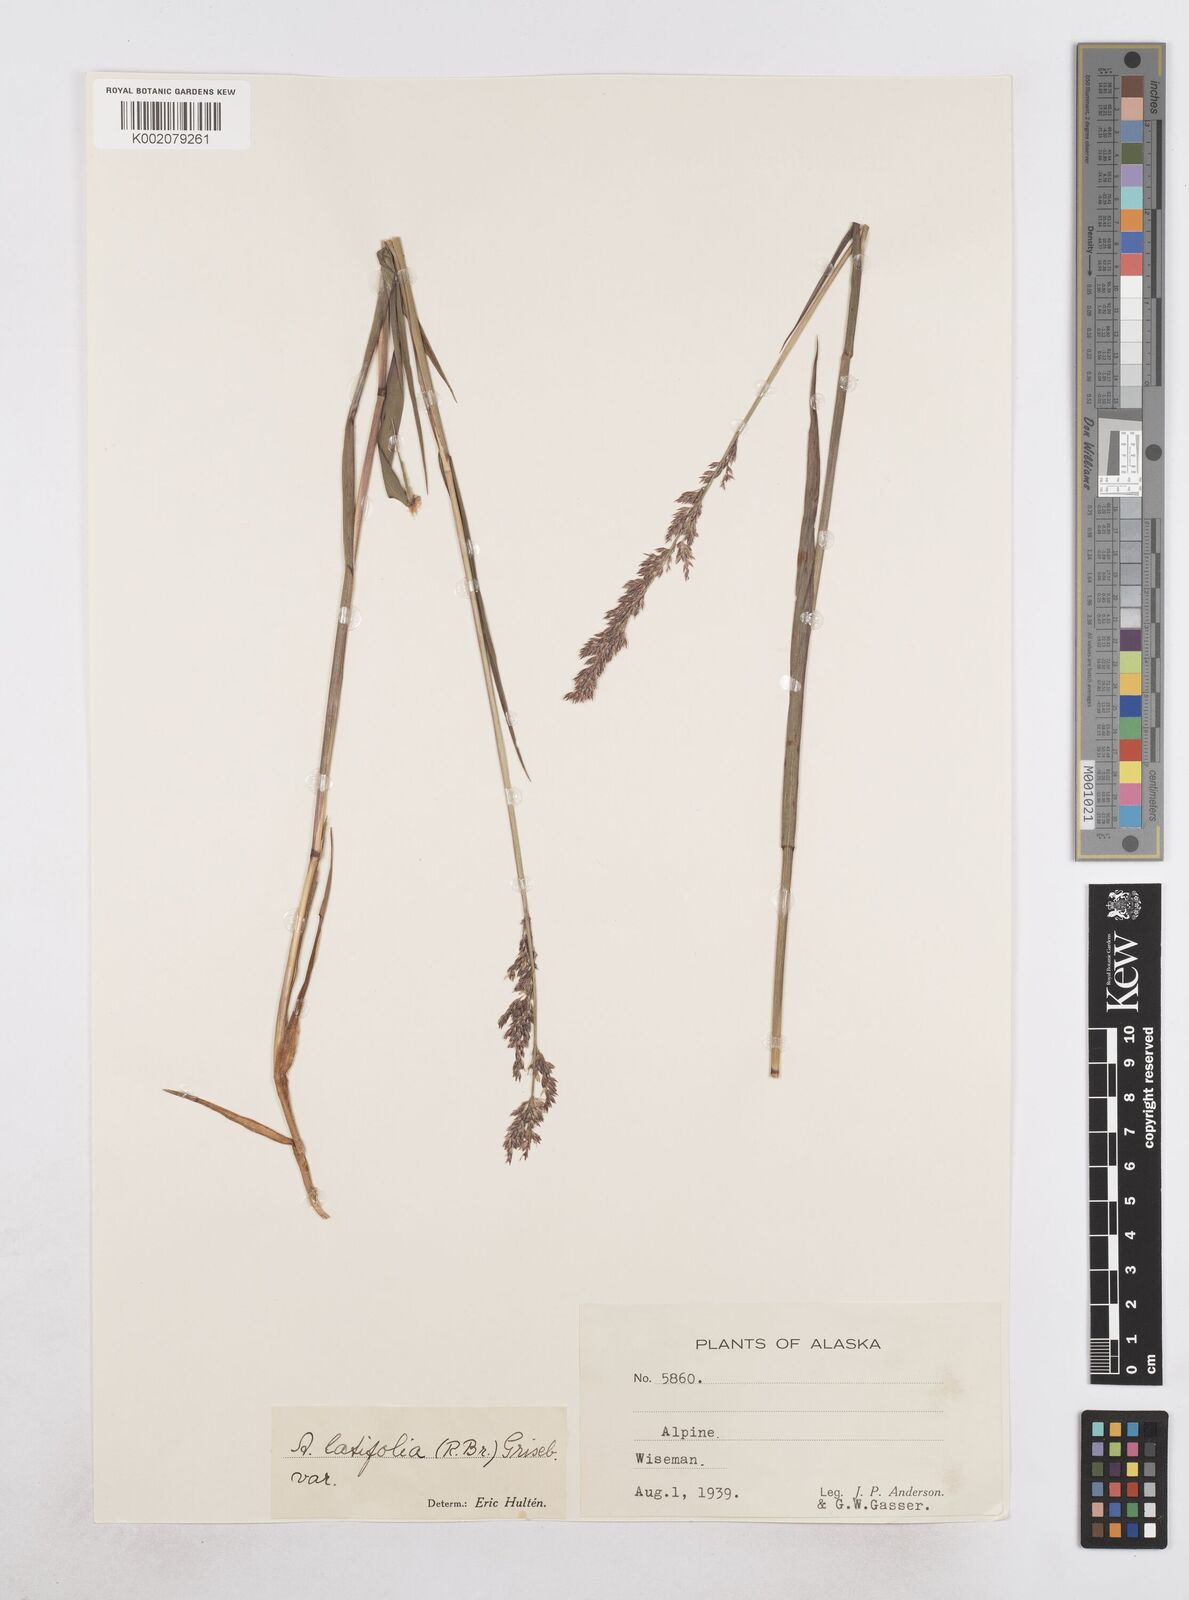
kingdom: Plantae
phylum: Tracheophyta
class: Liliopsida
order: Poales
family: Poaceae
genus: Arctagrostis
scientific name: Arctagrostis latifolia
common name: Arctic grass
